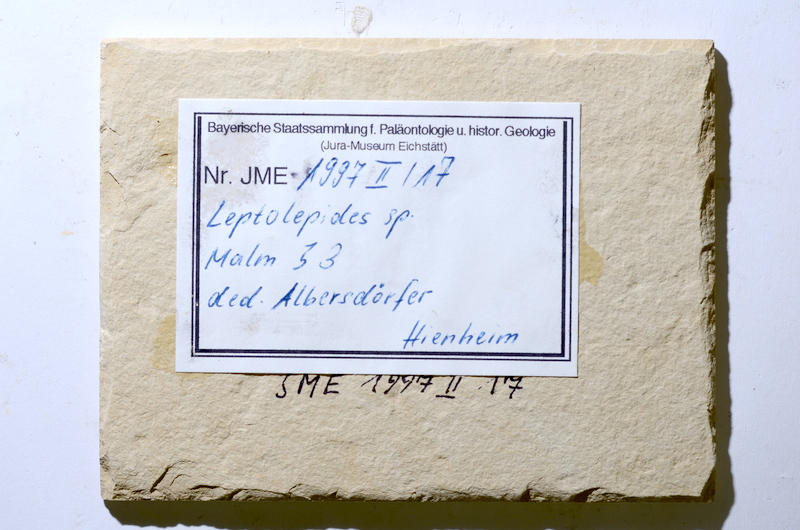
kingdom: Animalia
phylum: Chordata
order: Salmoniformes
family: Orthogonikleithridae
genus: Leptolepides
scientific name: Leptolepides
